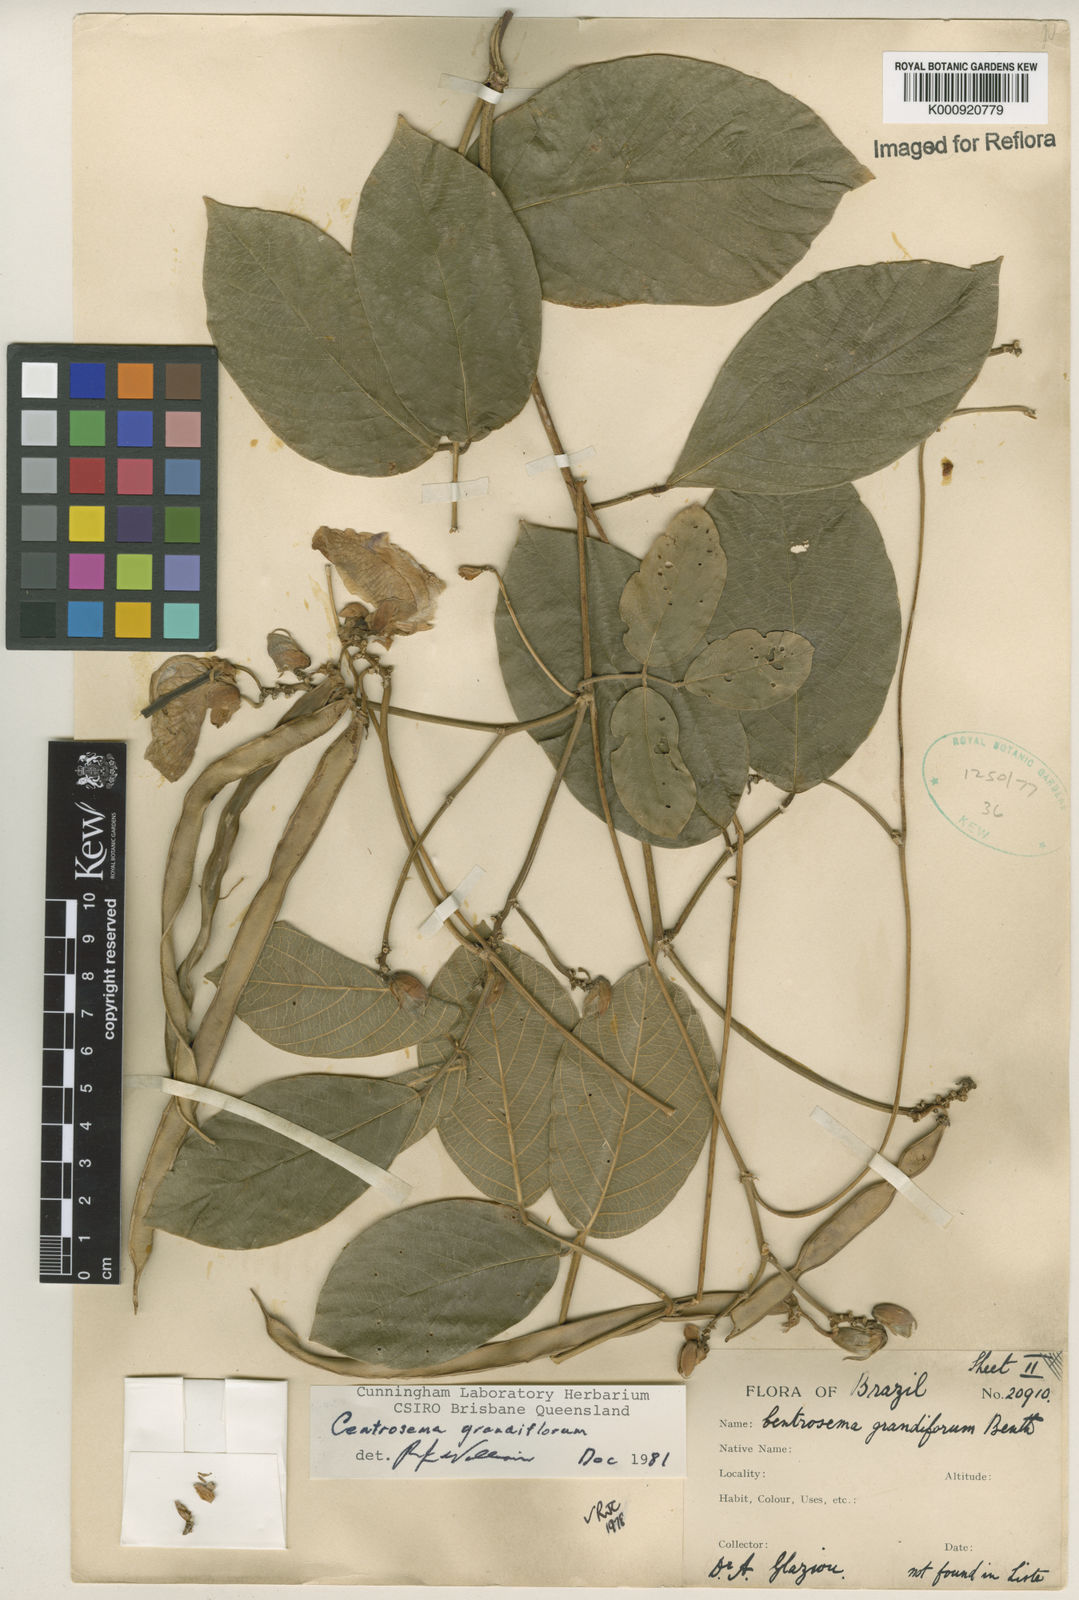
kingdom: Plantae
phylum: Tracheophyta
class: Magnoliopsida
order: Fabales
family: Fabaceae
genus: Centrosema
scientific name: Centrosema grandiflorum
